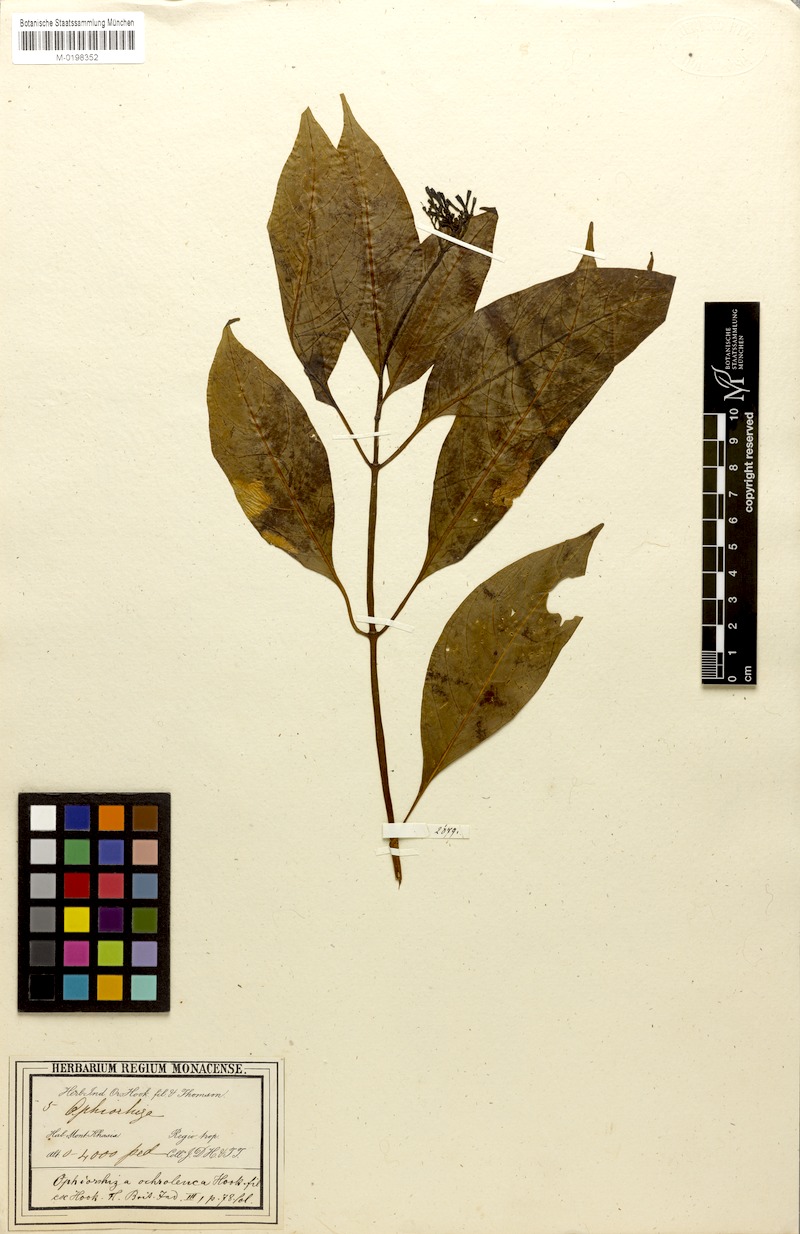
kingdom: Plantae
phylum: Tracheophyta
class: Magnoliopsida
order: Gentianales
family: Rubiaceae
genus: Ophiorrhiza
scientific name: Ophiorrhiza ochroleuca
